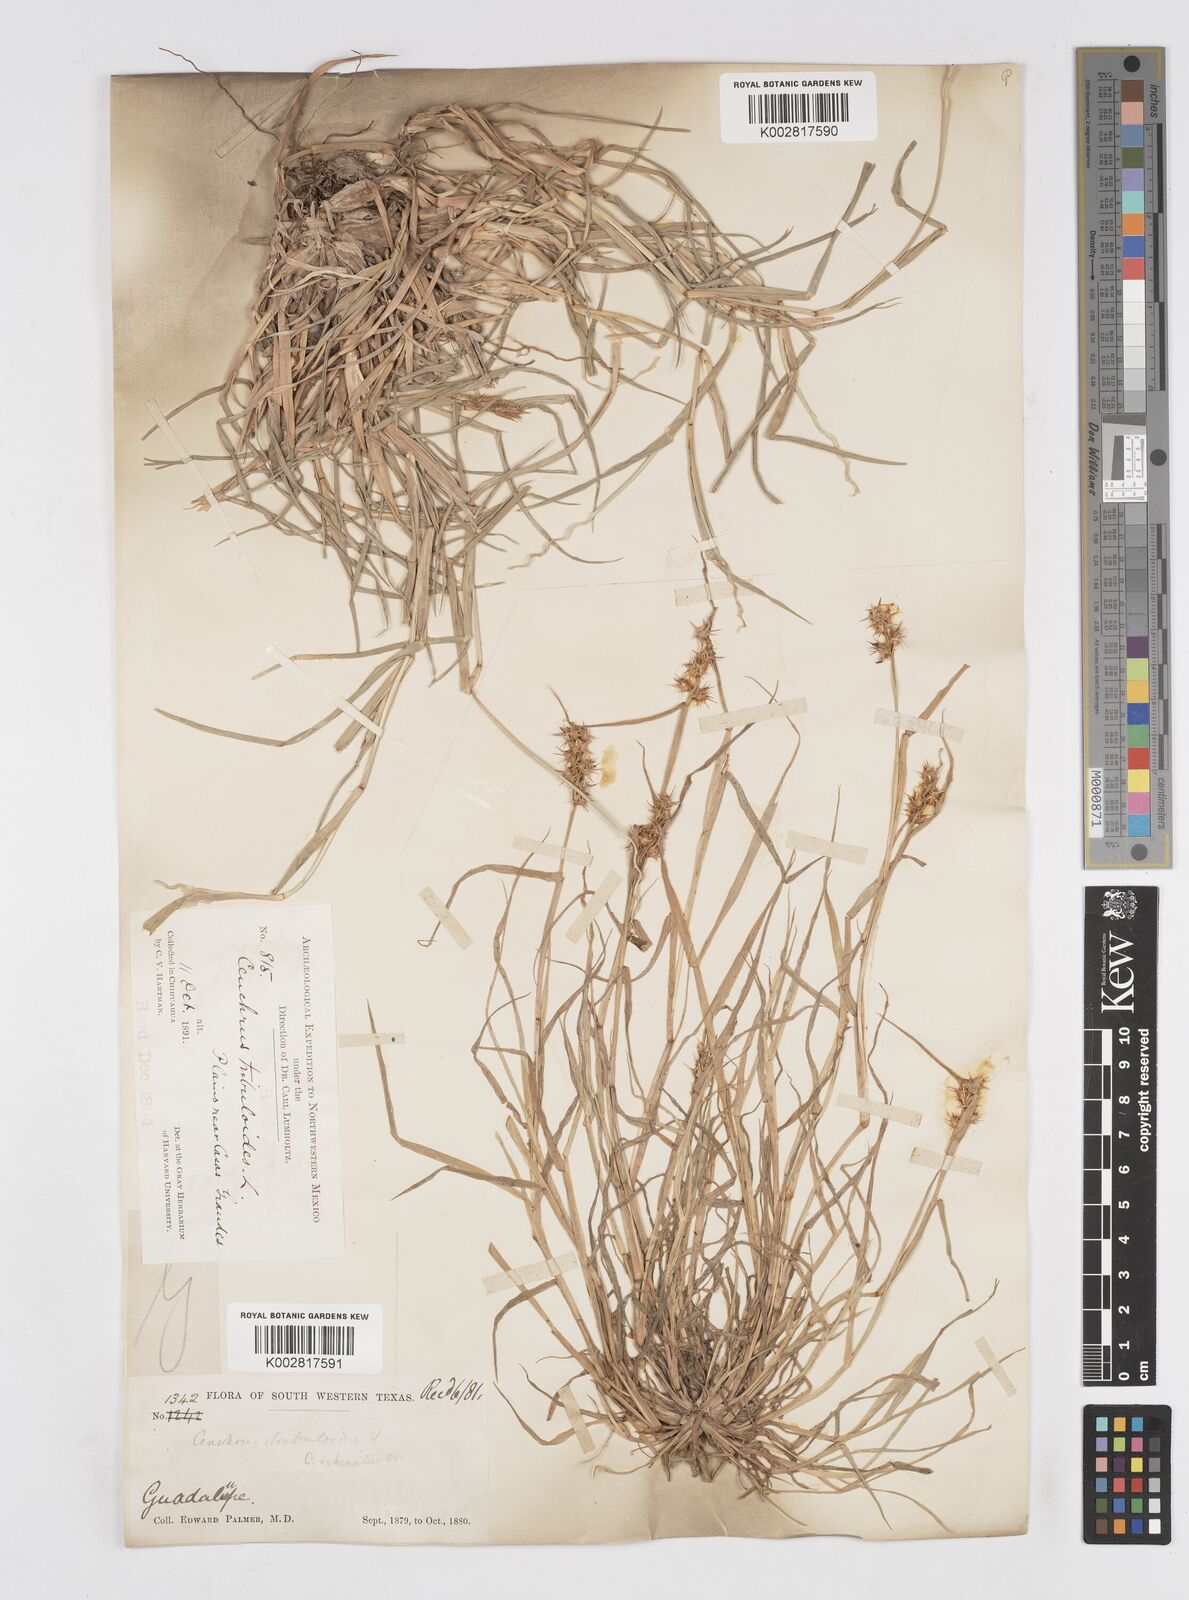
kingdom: Plantae
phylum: Tracheophyta
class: Liliopsida
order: Poales
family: Poaceae
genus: Cenchrus
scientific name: Cenchrus spinifex
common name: Coast sandbur
